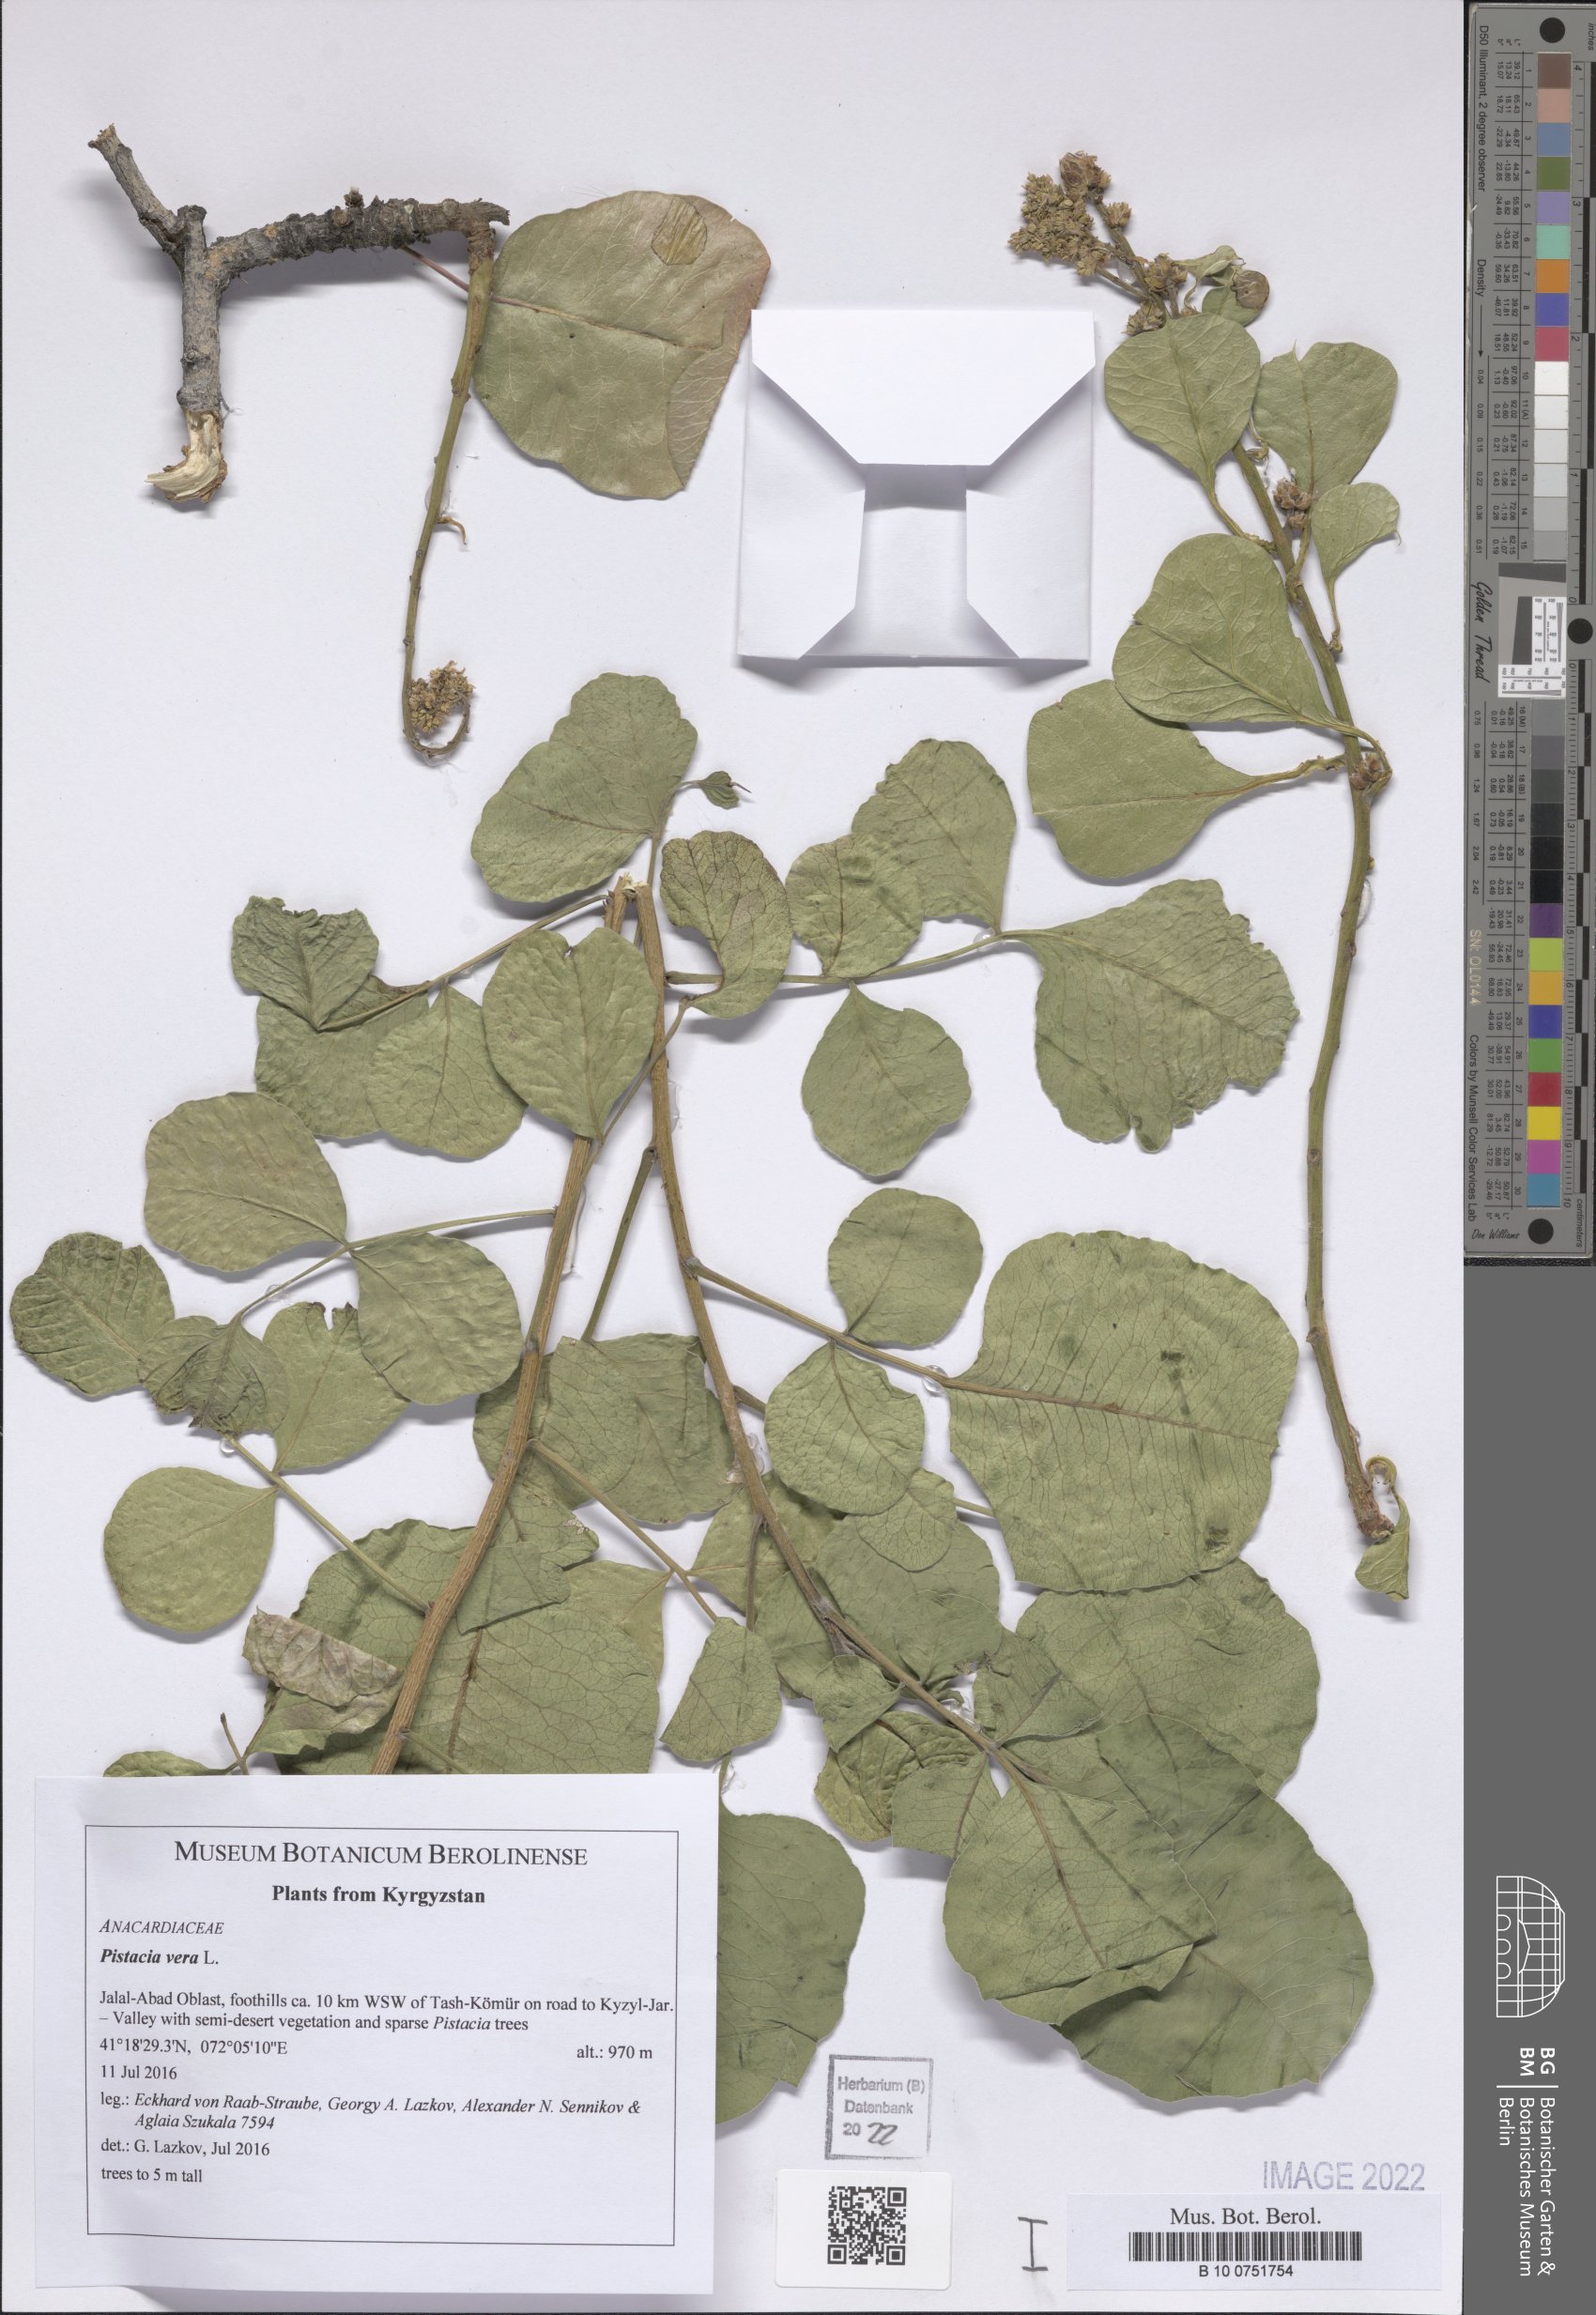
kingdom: Plantae
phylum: Tracheophyta
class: Magnoliopsida
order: Sapindales
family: Anacardiaceae
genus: Pistacia
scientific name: Pistacia vera
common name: Pistachio
